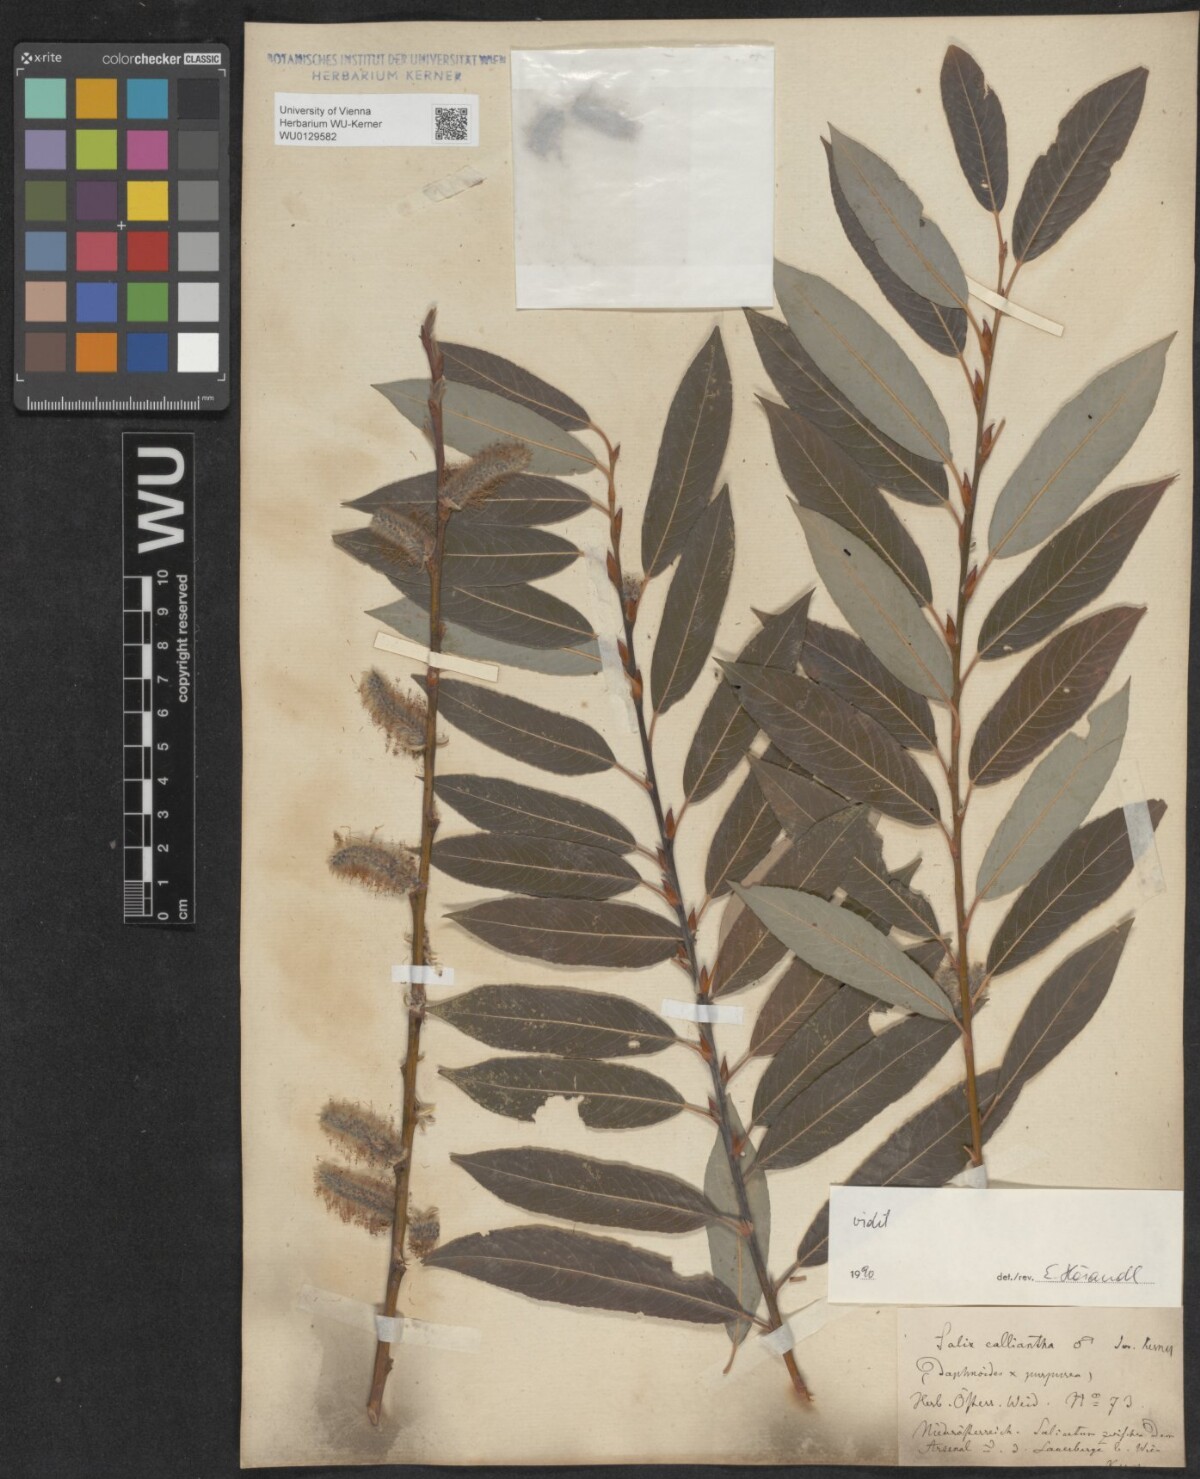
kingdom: Plantae
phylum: Tracheophyta
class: Magnoliopsida
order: Malpighiales
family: Salicaceae
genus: Salix
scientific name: Salix calliantha
